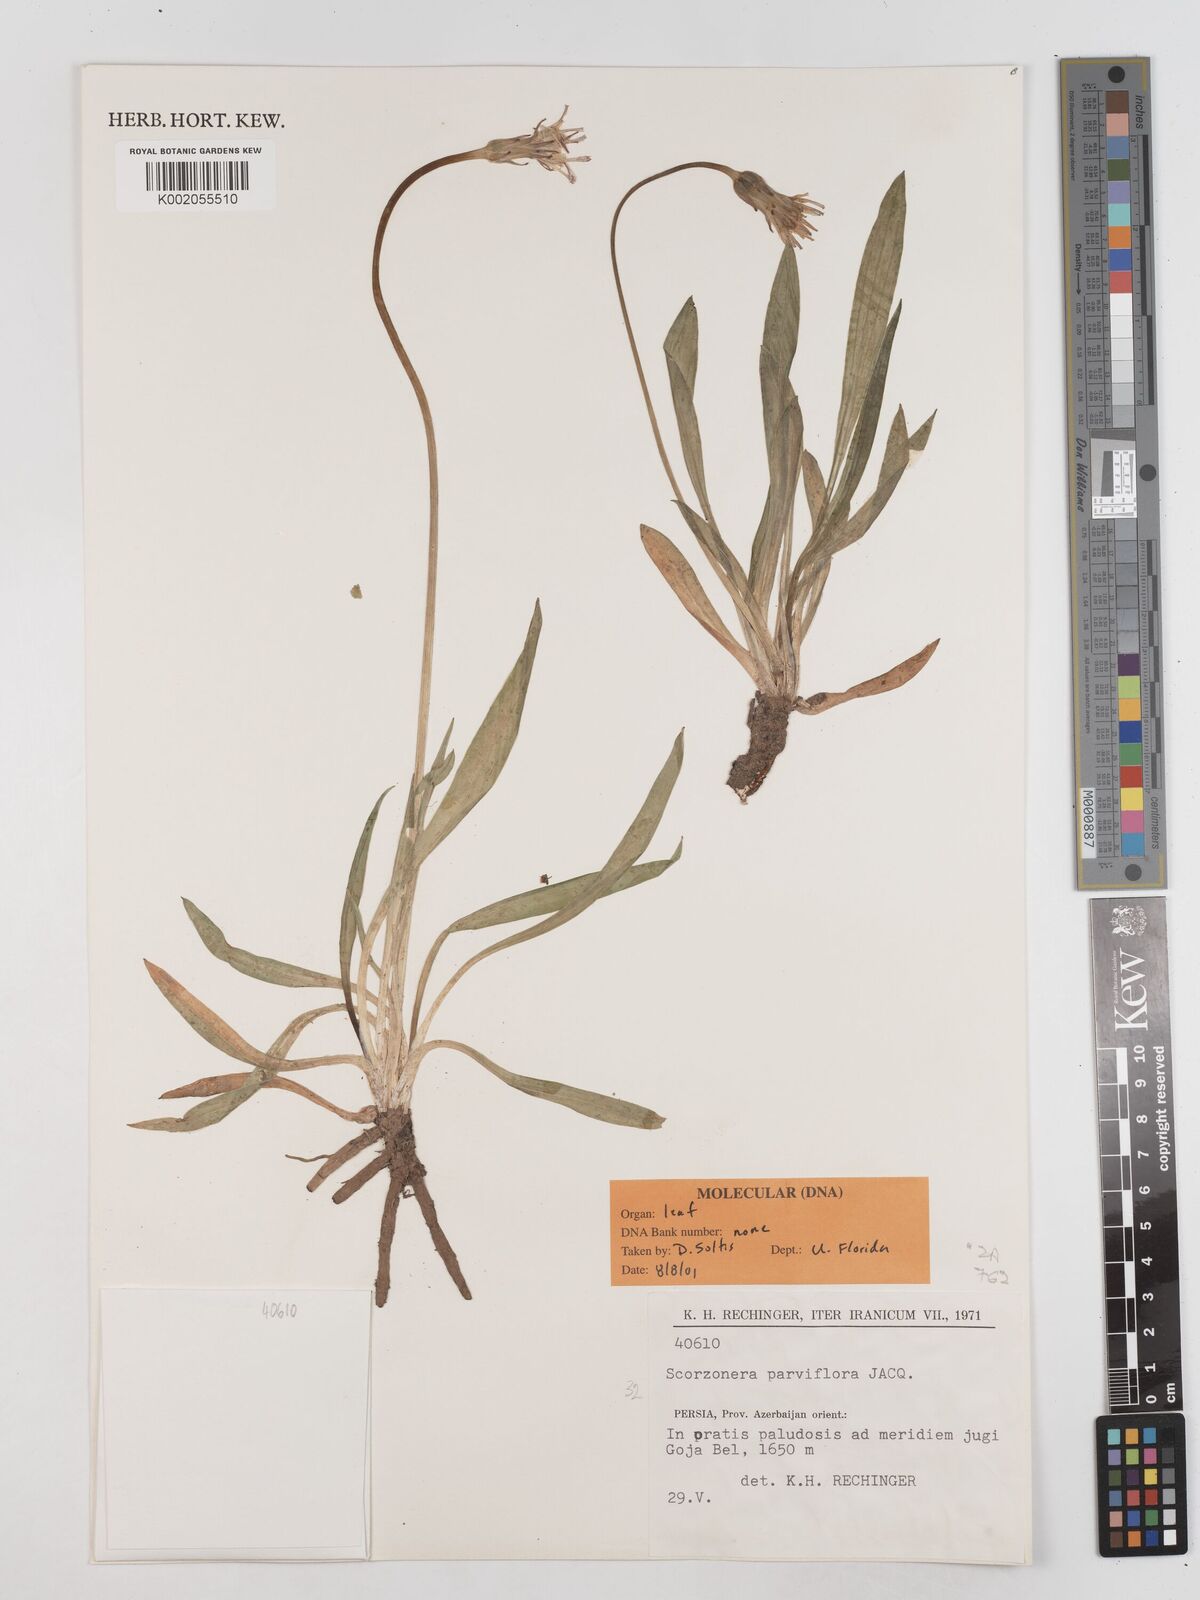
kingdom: Plantae
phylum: Tracheophyta
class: Magnoliopsida
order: Asterales
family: Asteraceae
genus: Scorzonera
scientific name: Scorzonera parviflora
